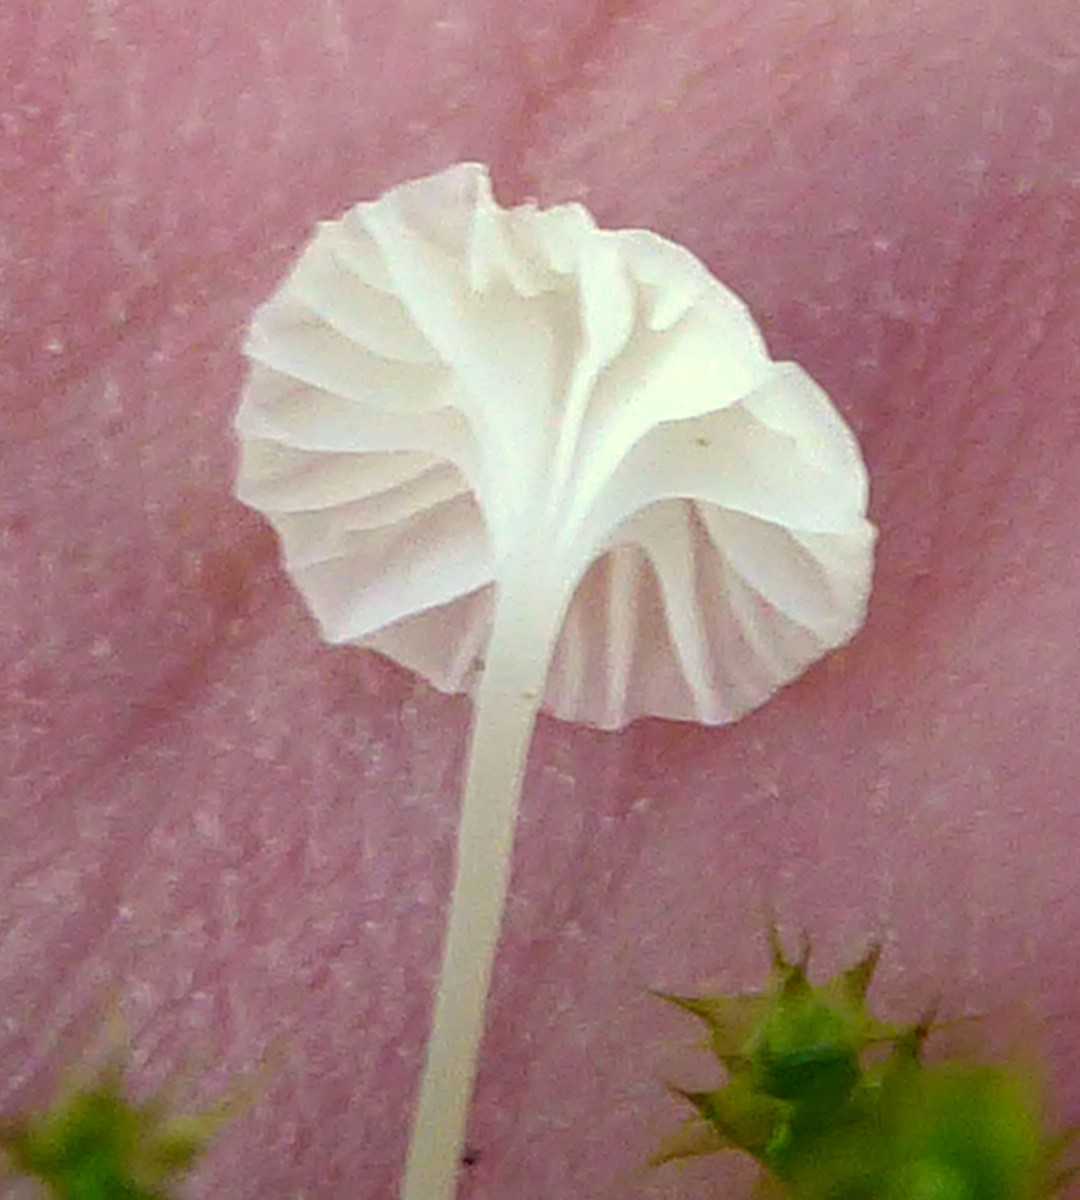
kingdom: Fungi
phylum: Basidiomycota
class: Agaricomycetes
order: Agaricales
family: Mycenaceae
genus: Hemimycena
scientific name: Hemimycena
